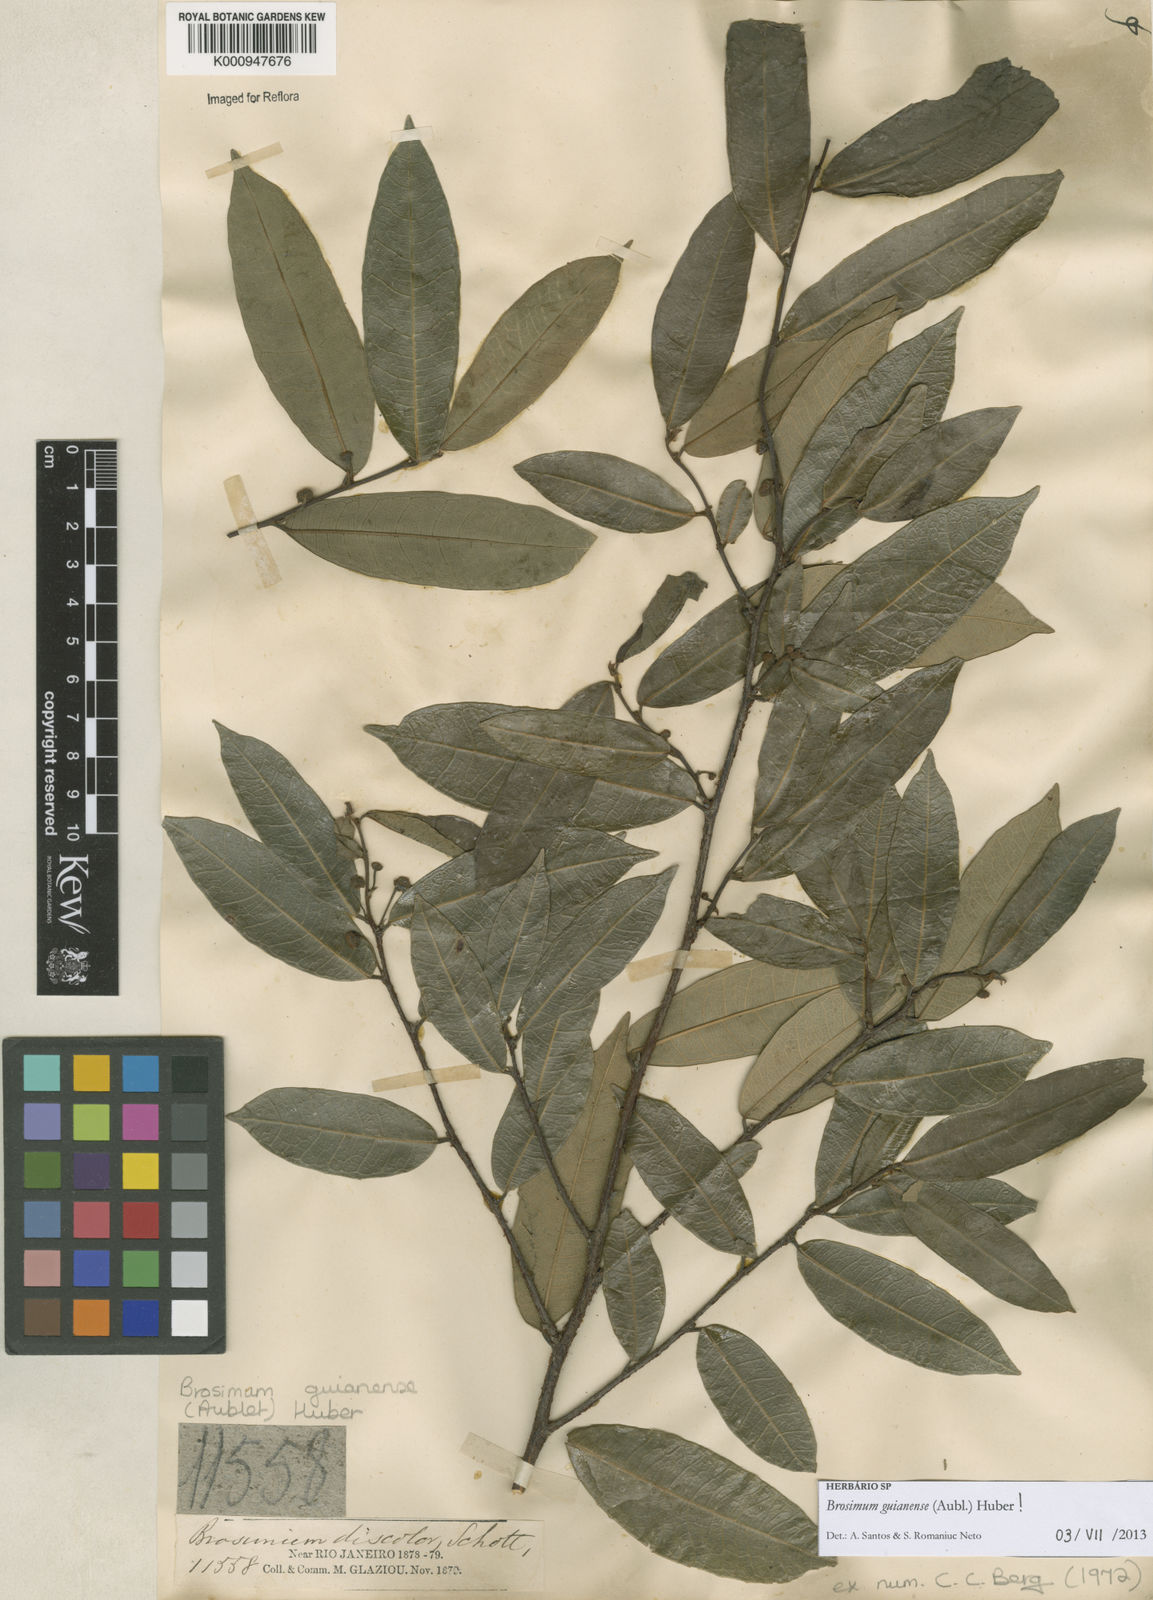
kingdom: Plantae
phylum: Tracheophyta
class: Magnoliopsida
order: Rosales
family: Moraceae
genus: Brosimum
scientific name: Brosimum
